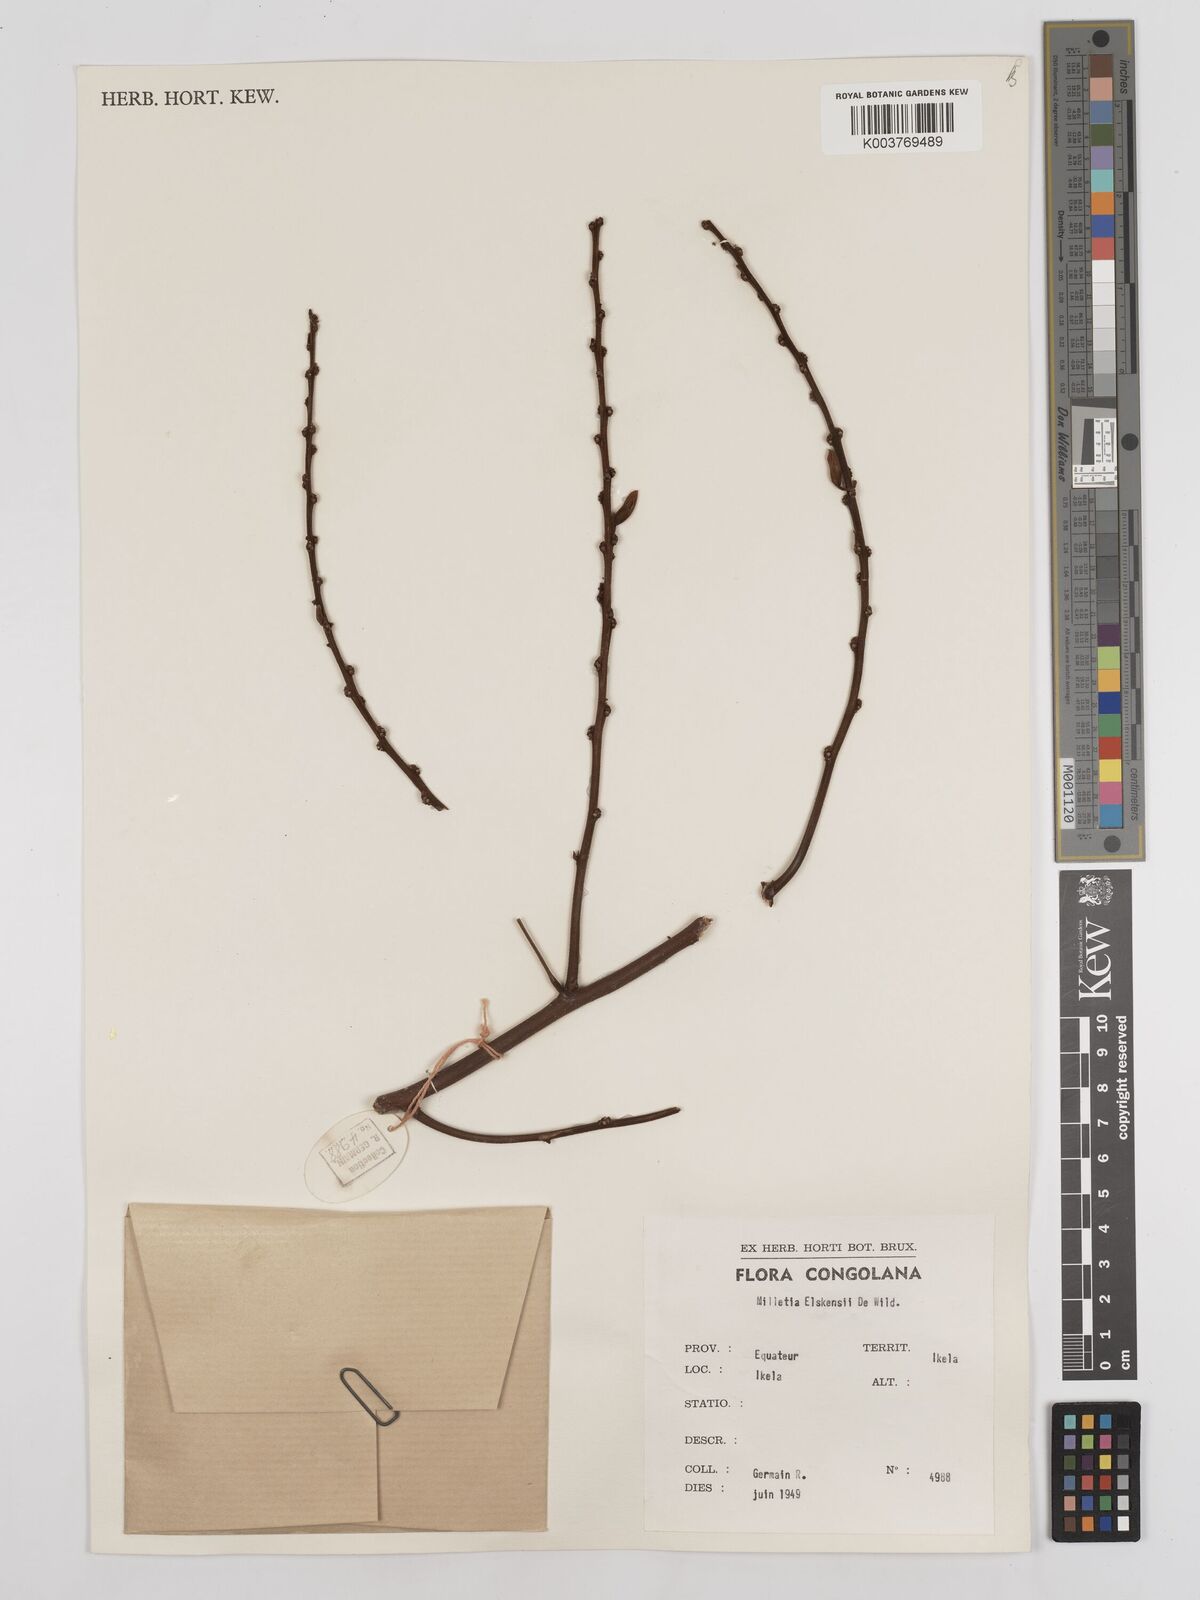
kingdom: Plantae
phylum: Tracheophyta
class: Magnoliopsida
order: Fabales
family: Fabaceae
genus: Millettia
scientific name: Millettia elskensii
